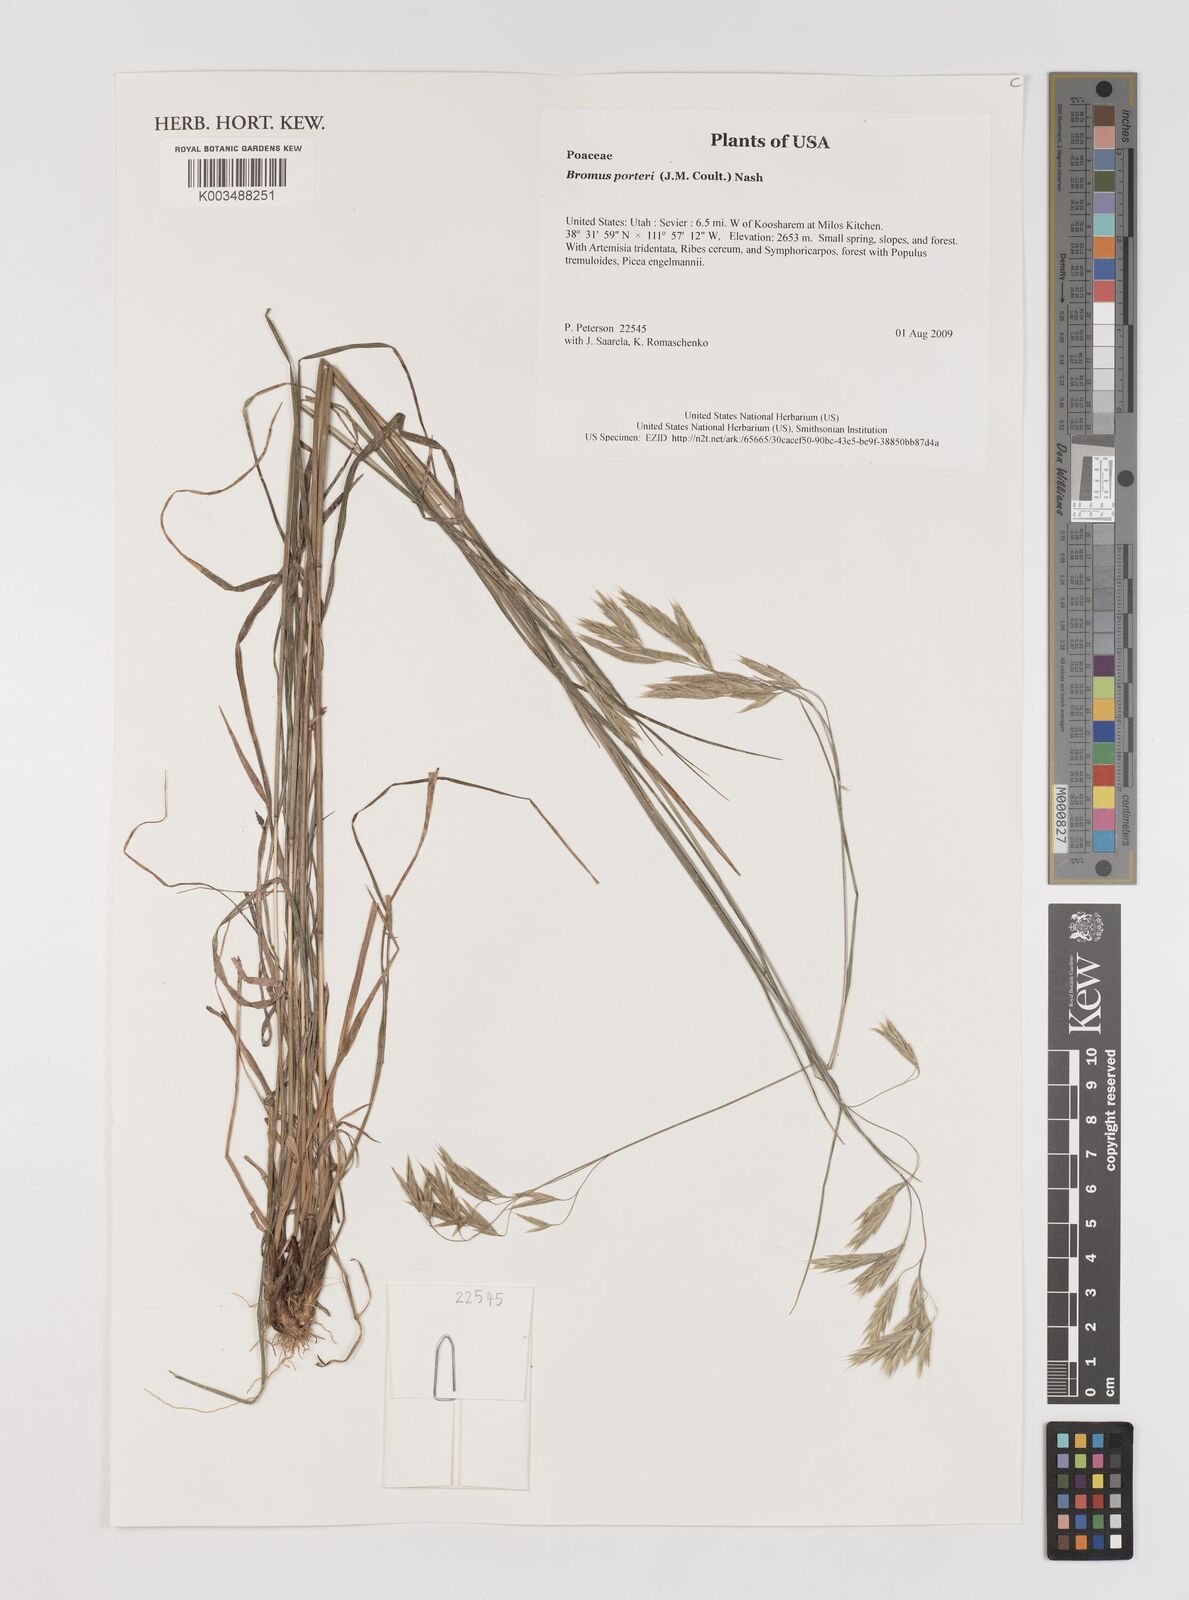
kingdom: Plantae
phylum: Tracheophyta
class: Liliopsida
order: Poales
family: Poaceae
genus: Bromus
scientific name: Bromus porteri
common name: Nodding brome
